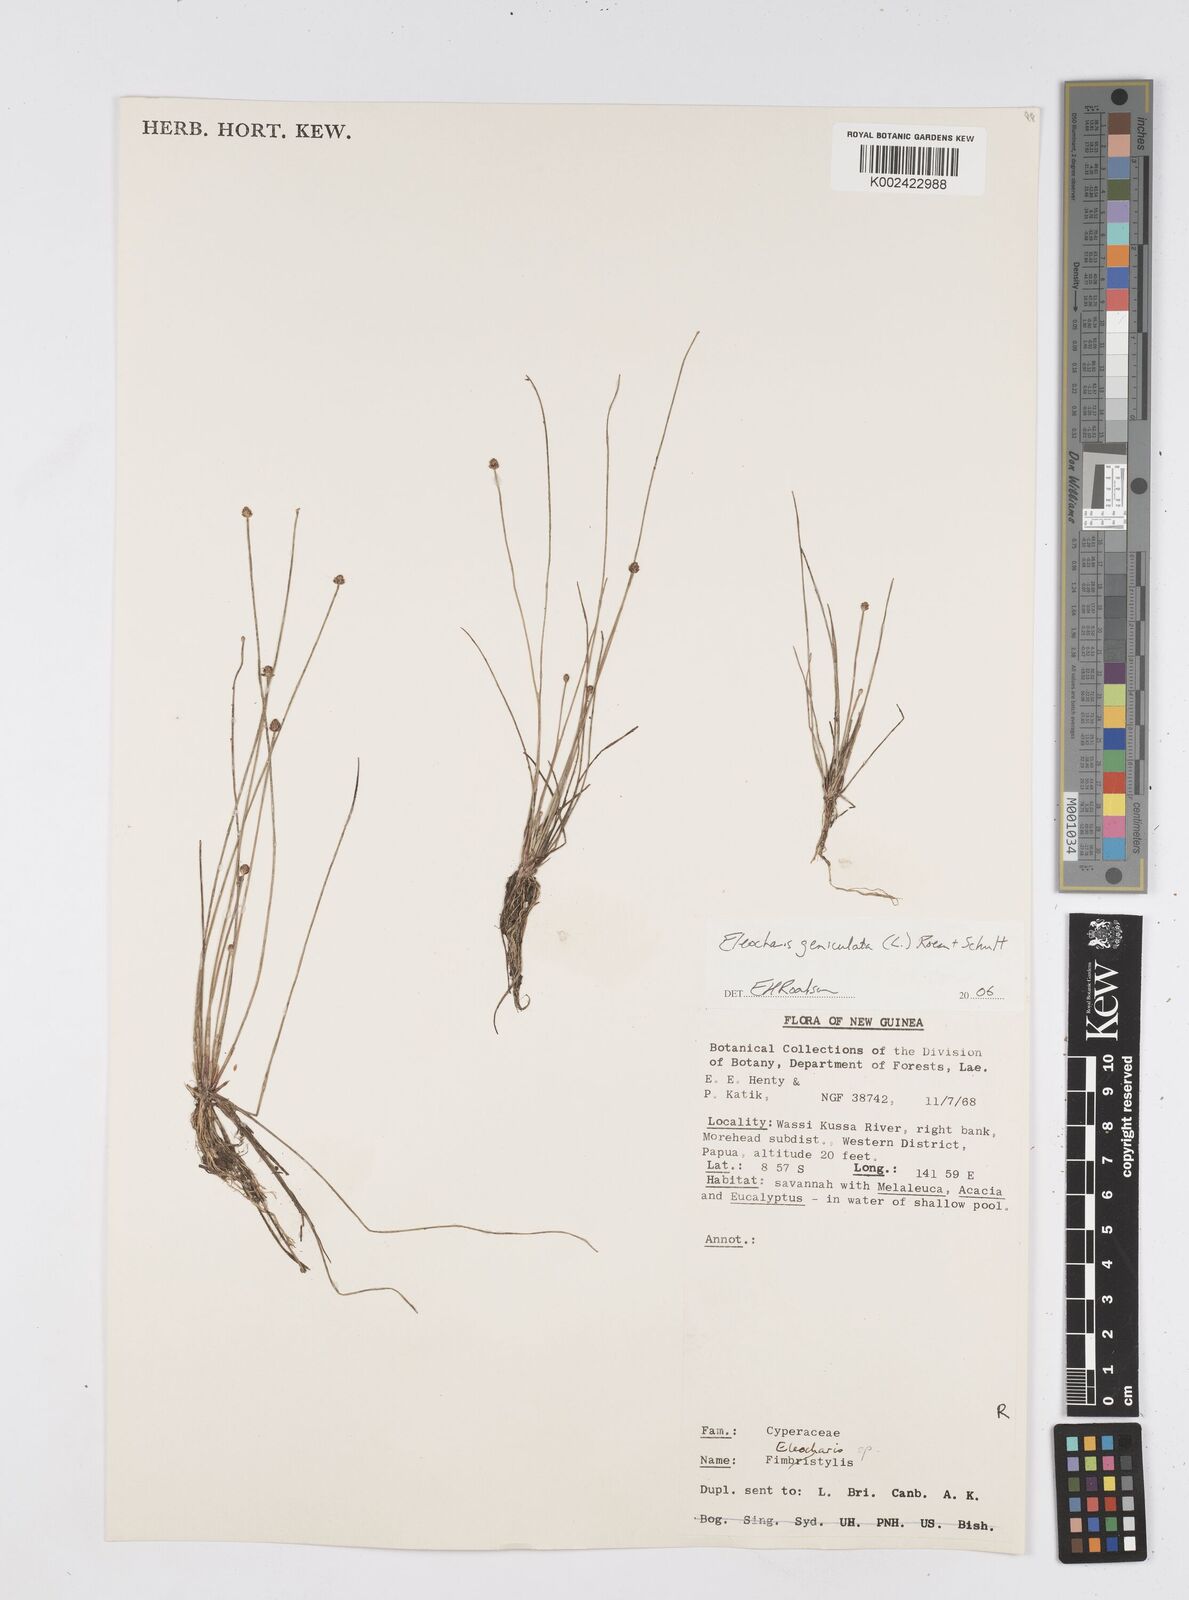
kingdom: Plantae
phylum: Tracheophyta
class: Liliopsida
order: Poales
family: Cyperaceae
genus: Eleocharis
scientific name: Eleocharis geniculata
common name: Canada spikesedge
